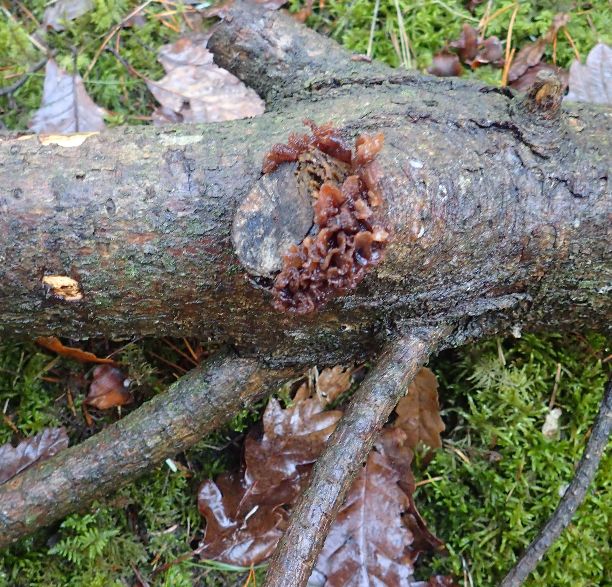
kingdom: Fungi
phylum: Basidiomycota
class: Tremellomycetes
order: Tremellales
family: Tremellaceae
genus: Phaeotremella
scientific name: Phaeotremella foliacea
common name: brun bævresvamp
